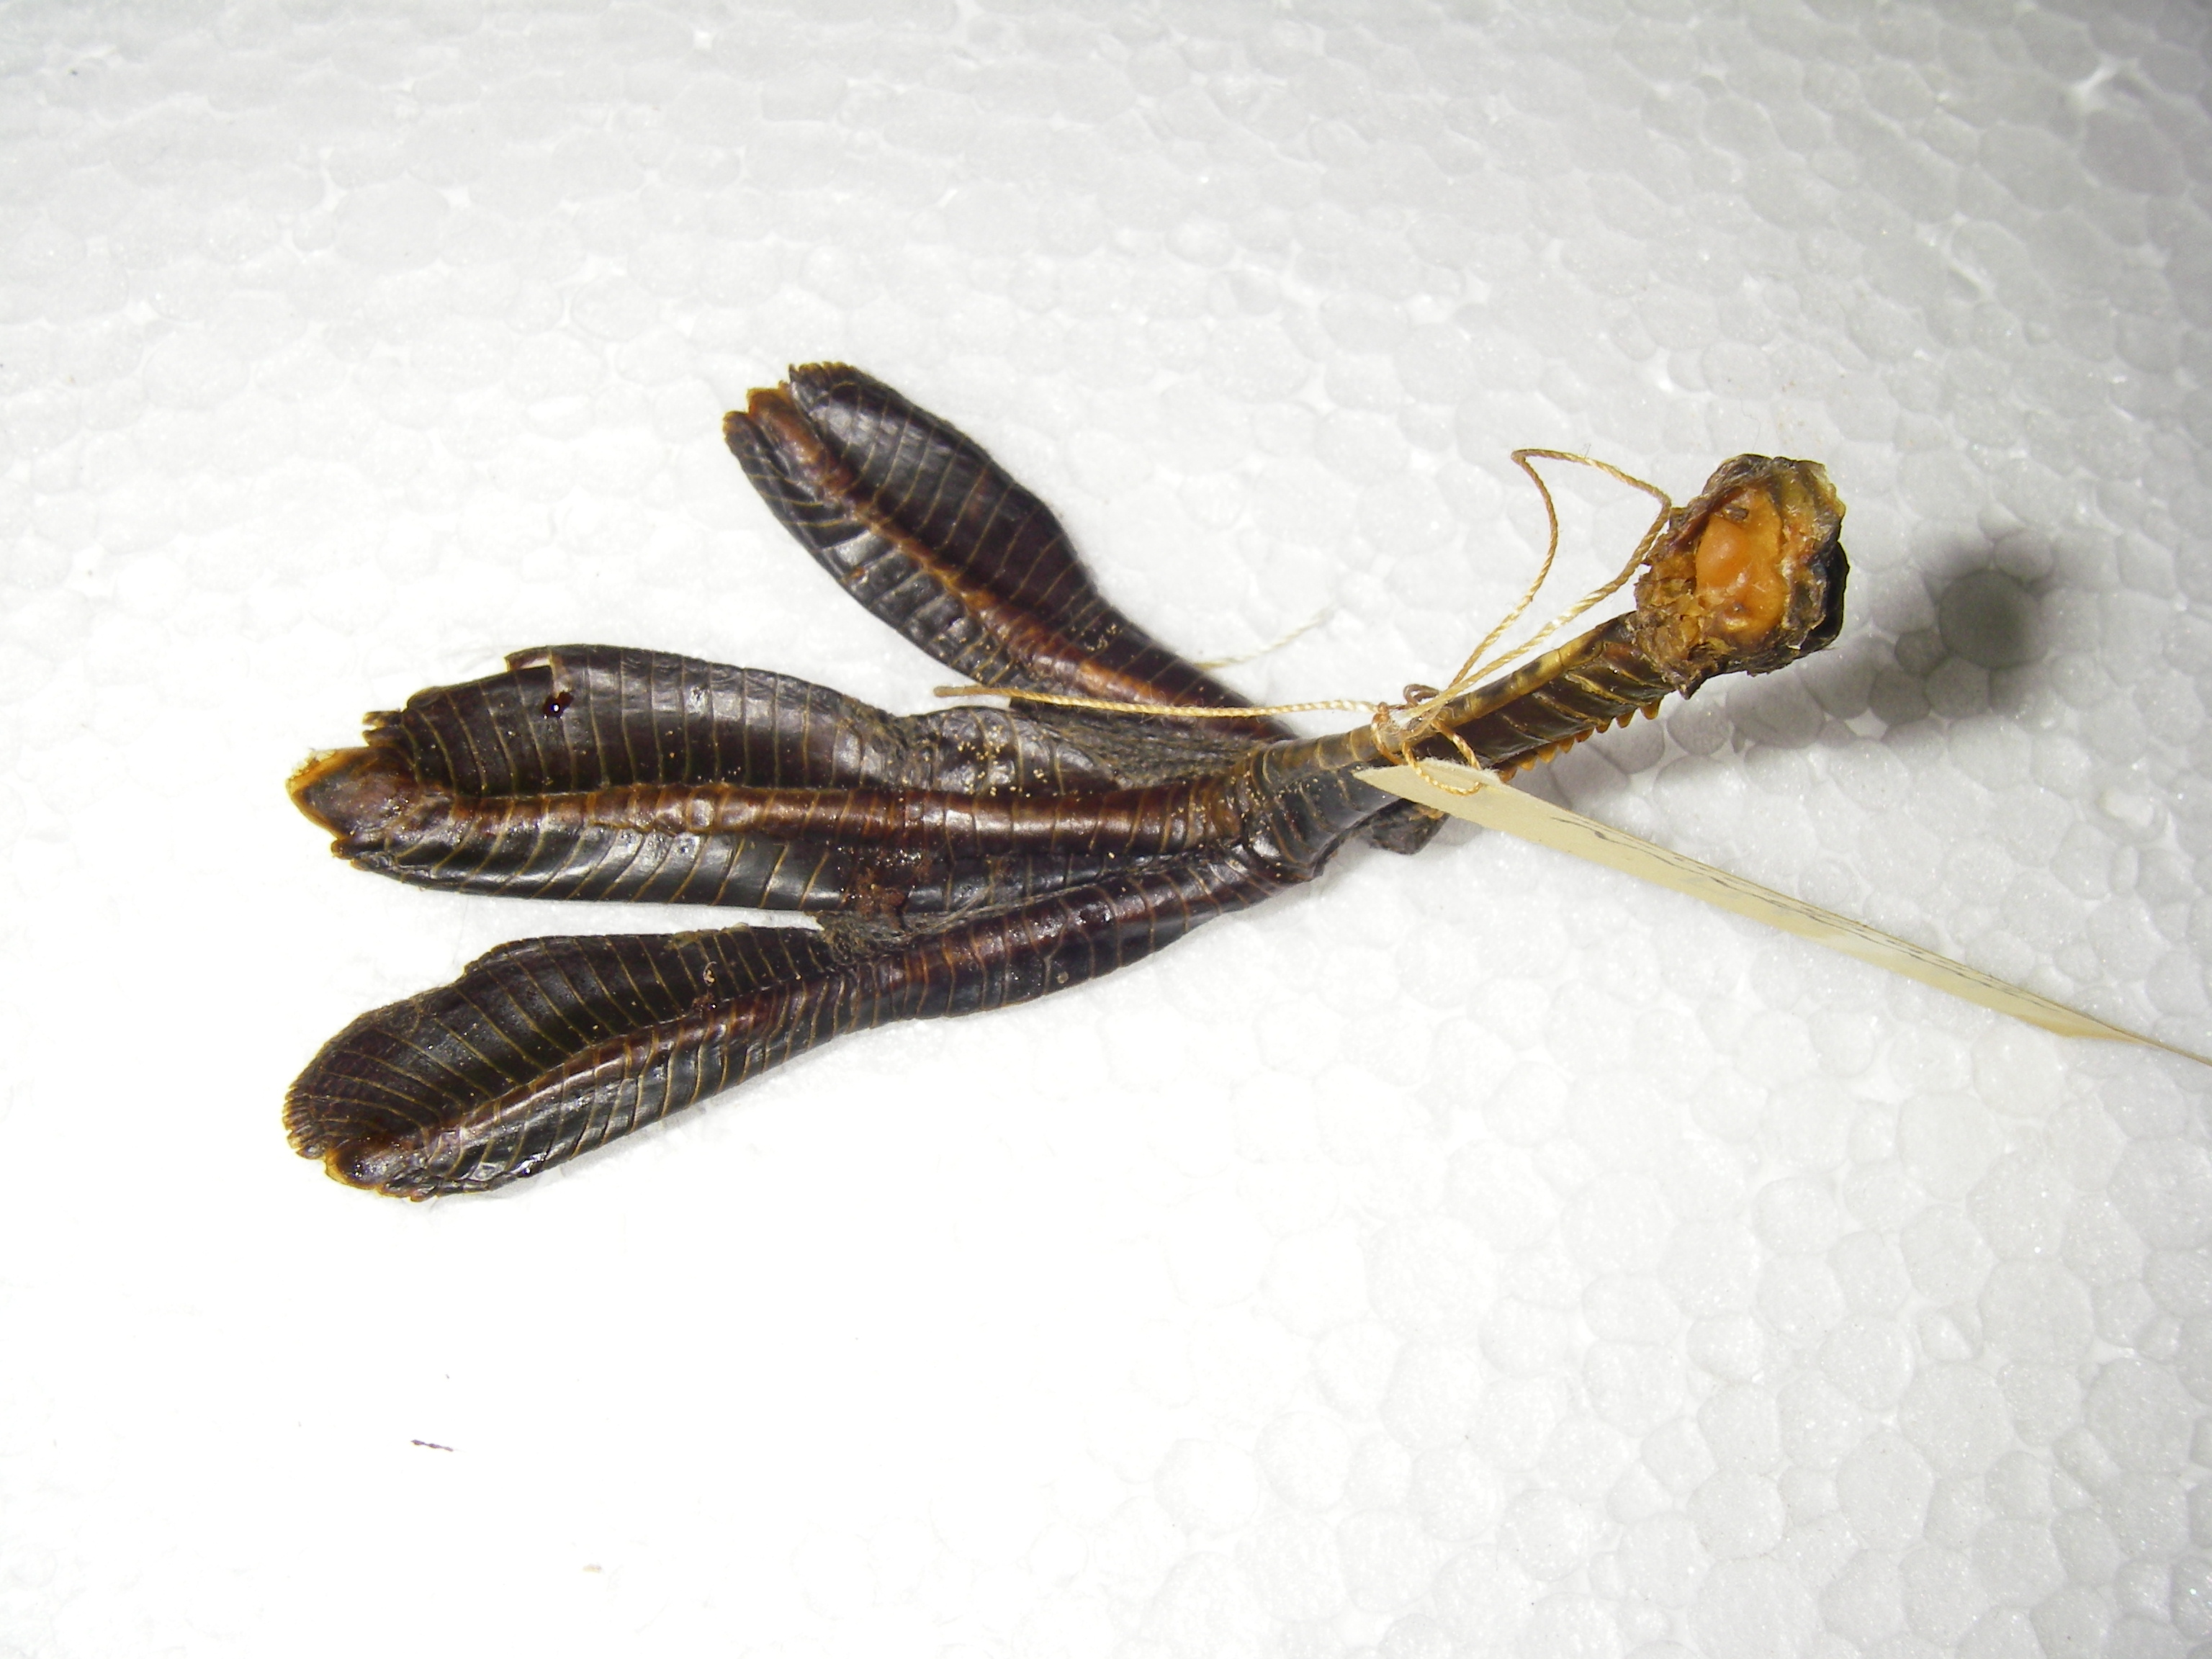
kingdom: Animalia
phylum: Chordata
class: Aves
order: Podicipediformes
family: Podicipedidae
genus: Tachybaptus
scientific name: Tachybaptus ruficollis
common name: Little grebe
